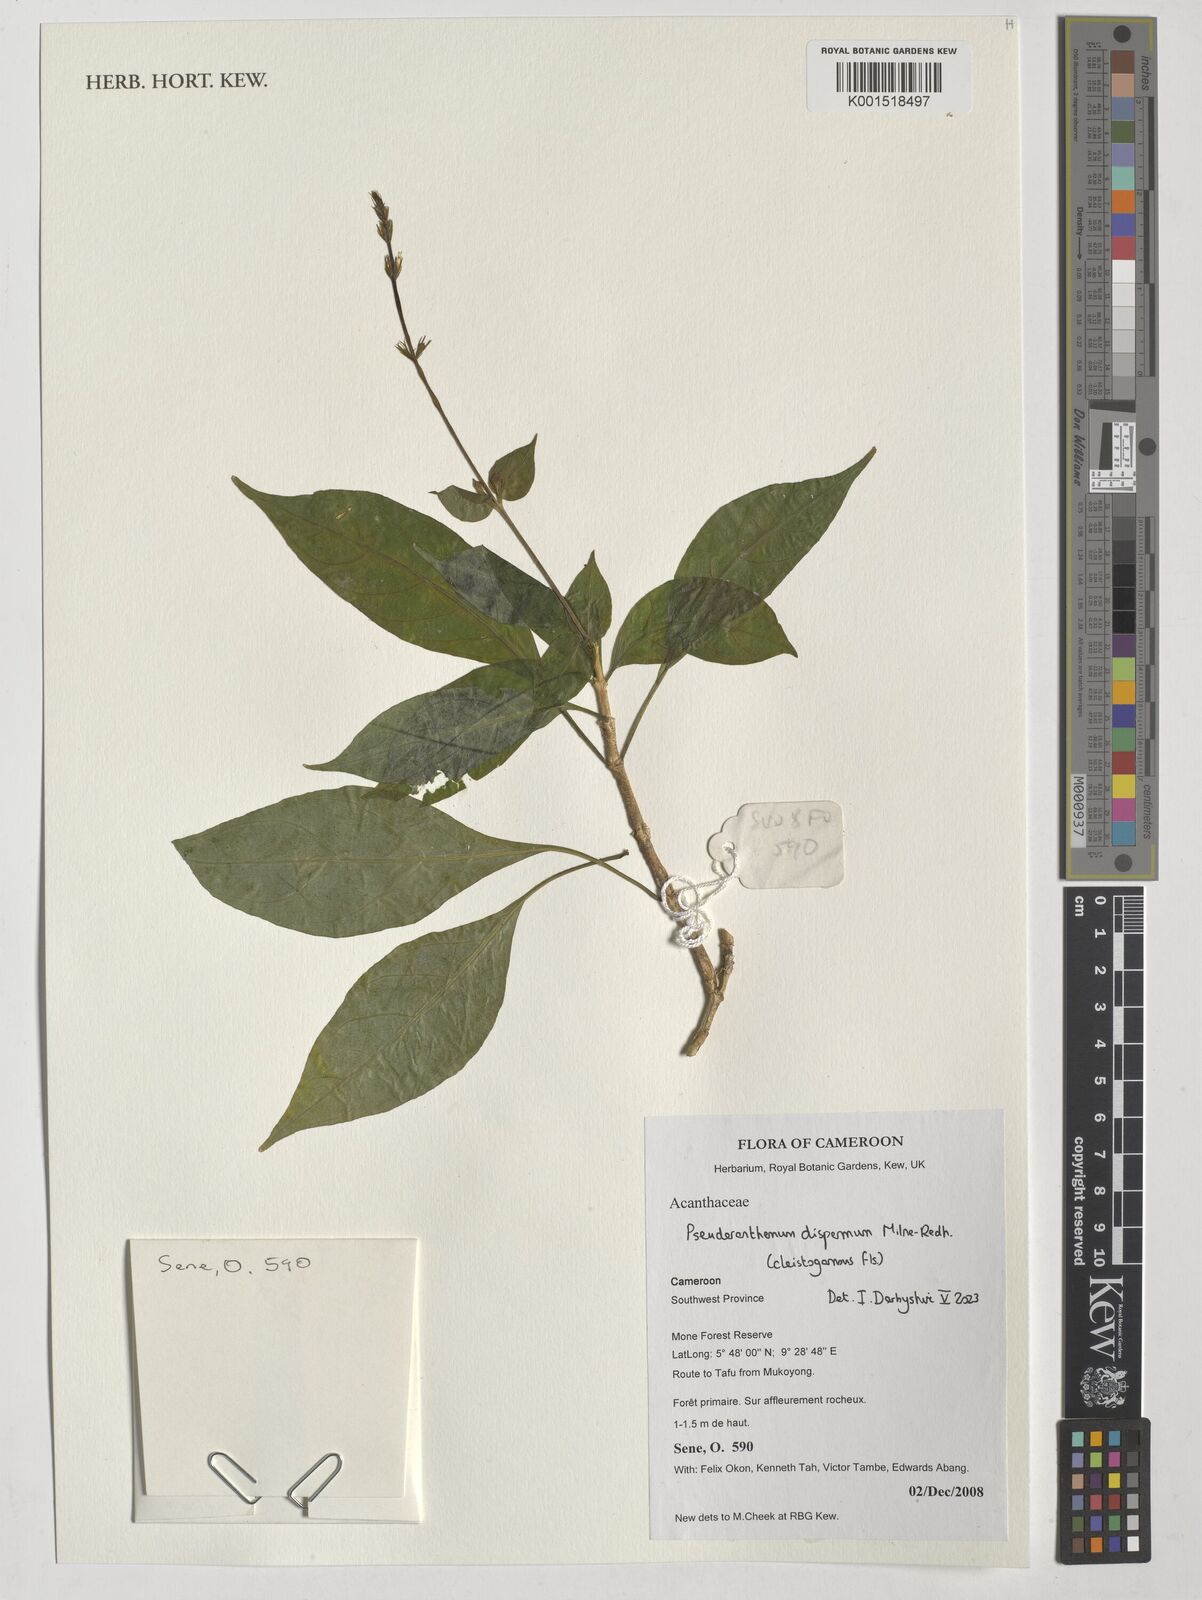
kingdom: Plantae
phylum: Tracheophyta
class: Magnoliopsida
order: Lamiales
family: Acanthaceae
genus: Pseuderanthemum
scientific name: Pseuderanthemum dispermum
